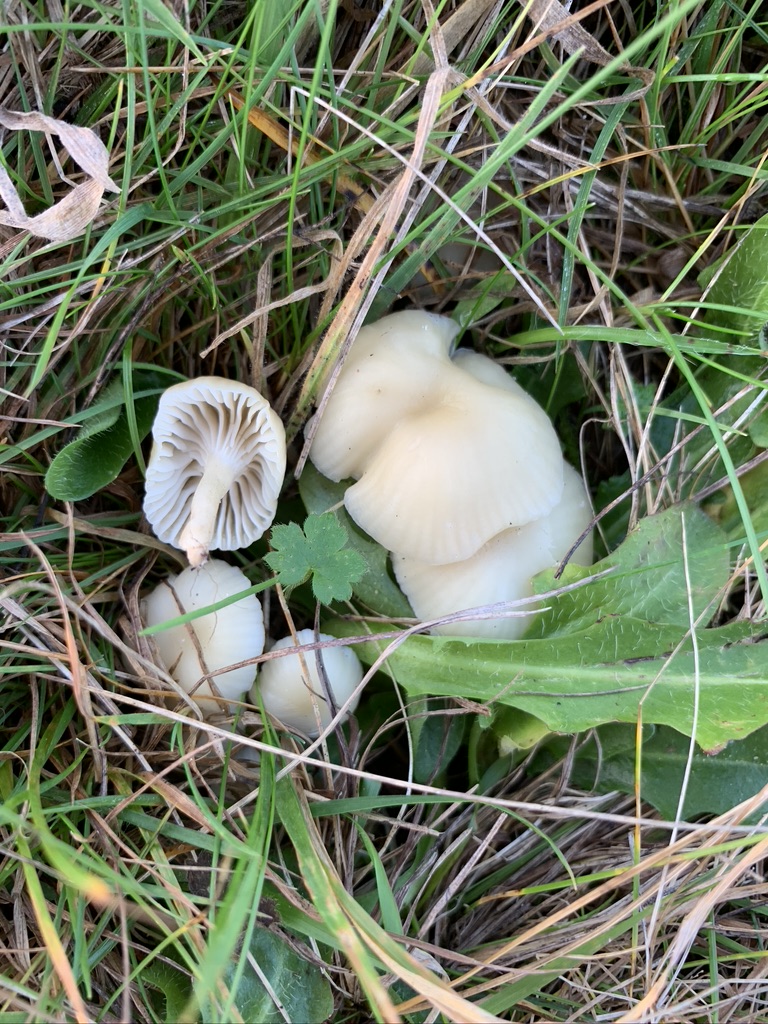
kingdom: Fungi
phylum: Basidiomycota
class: Agaricomycetes
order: Agaricales
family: Hygrophoraceae
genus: Cuphophyllus
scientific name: Cuphophyllus russocoriaceus
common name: ruslæder-vokshat
